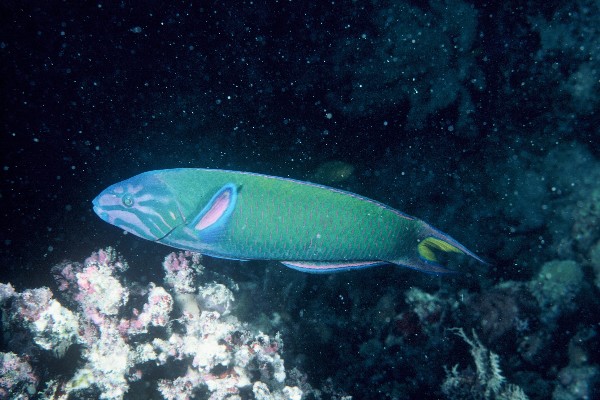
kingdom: Animalia
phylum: Chordata
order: Perciformes
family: Labridae
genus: Thalassoma
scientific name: Thalassoma lunare
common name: Blue wrasse
